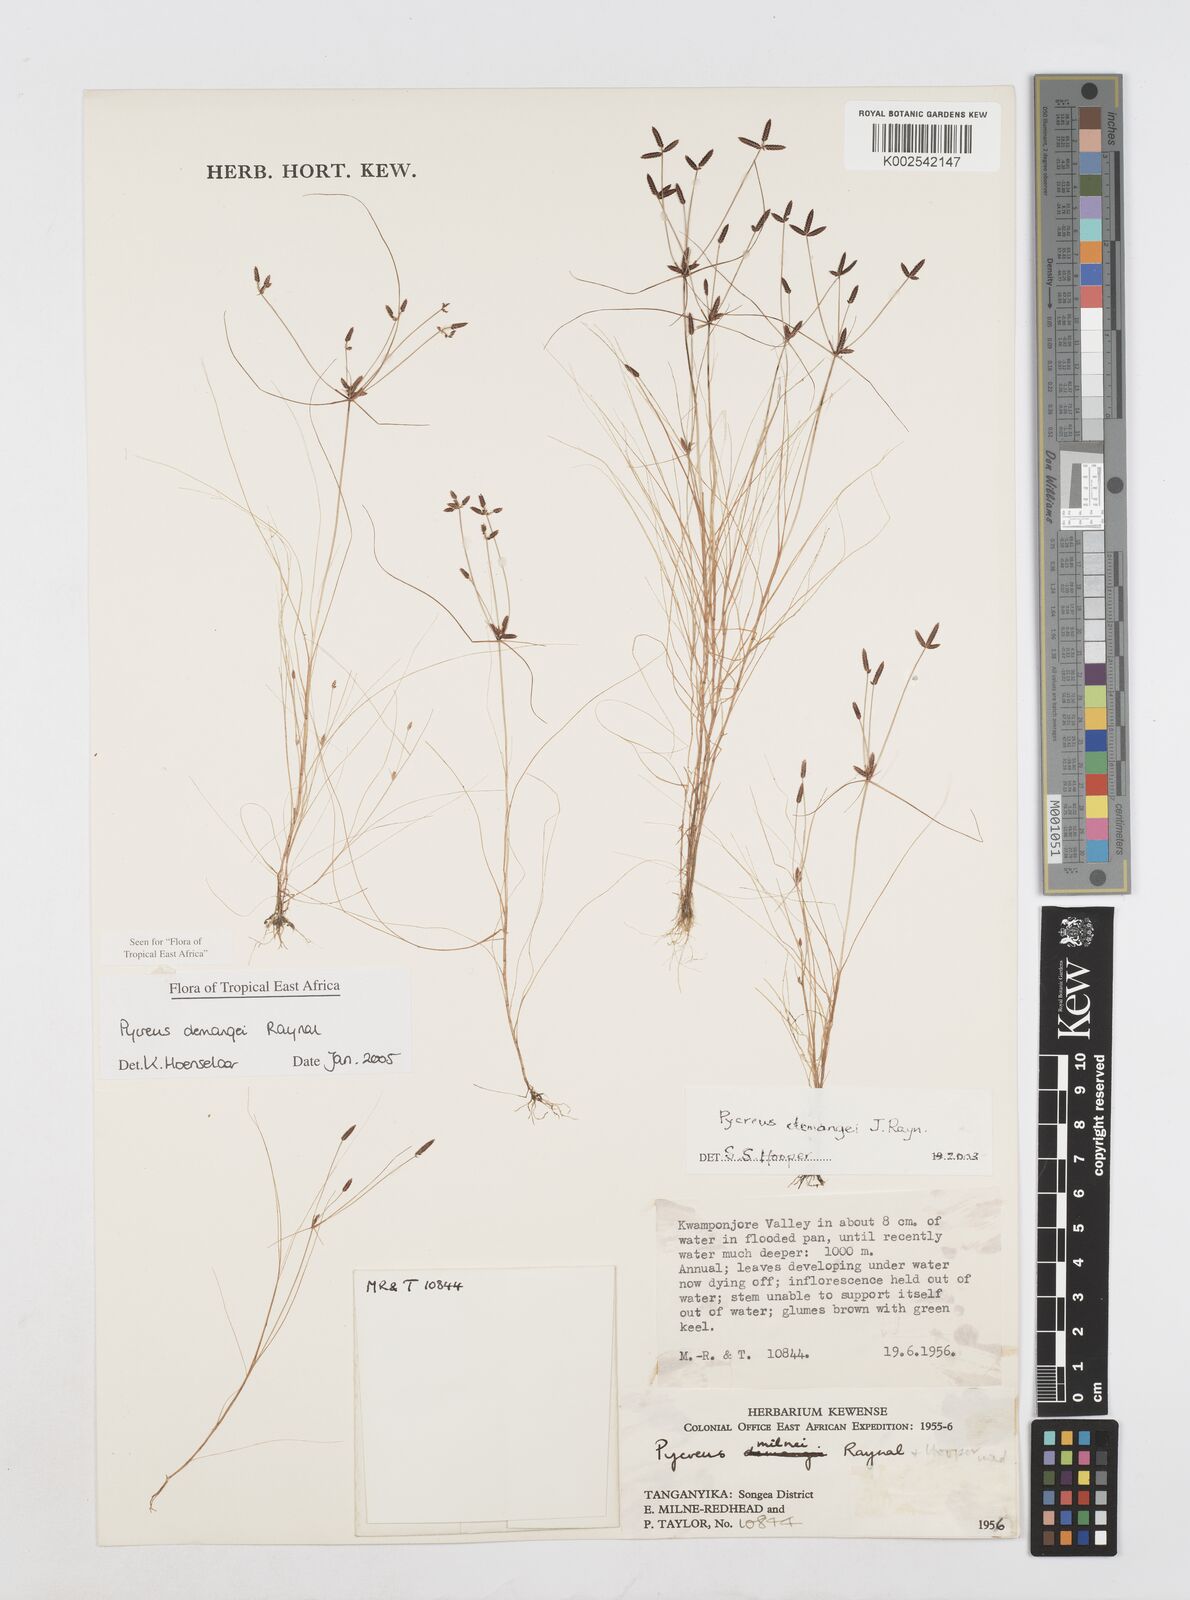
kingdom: Plantae
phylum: Tracheophyta
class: Liliopsida
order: Poales
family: Cyperaceae
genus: Cyperus
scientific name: Cyperus demangei
